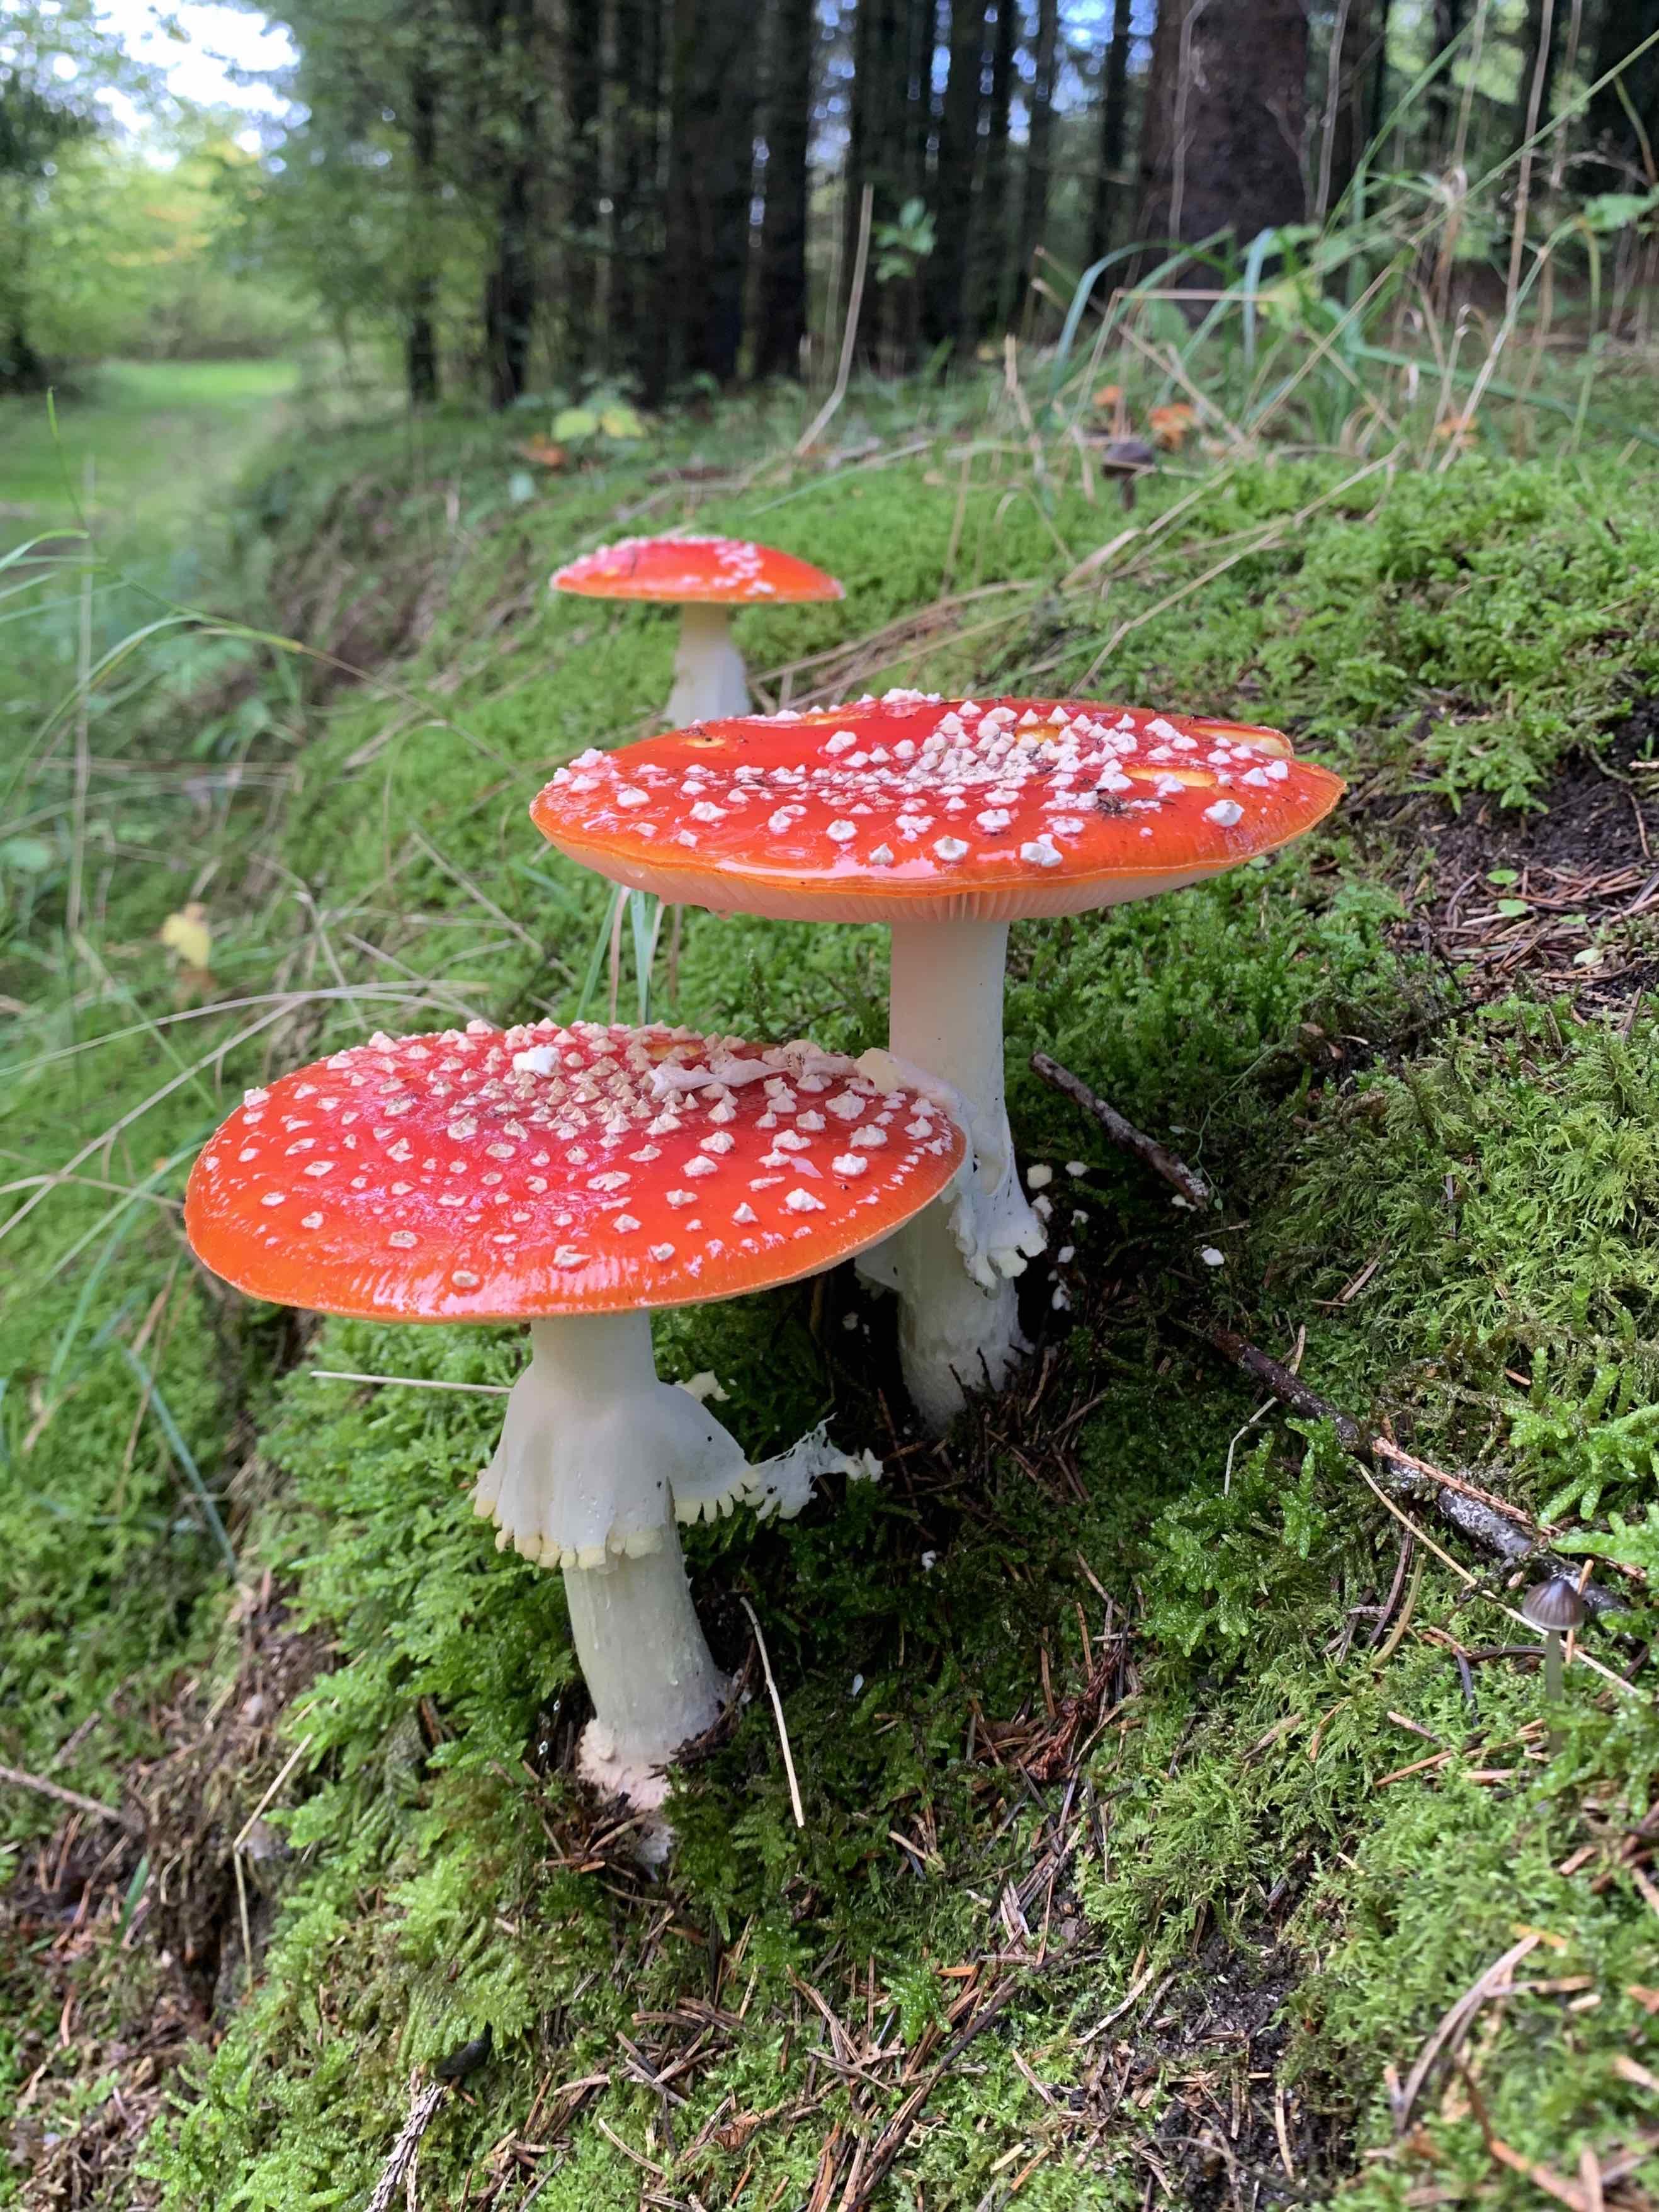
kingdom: Fungi
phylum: Basidiomycota
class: Agaricomycetes
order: Agaricales
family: Amanitaceae
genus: Amanita
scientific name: Amanita muscaria
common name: rød fluesvamp
